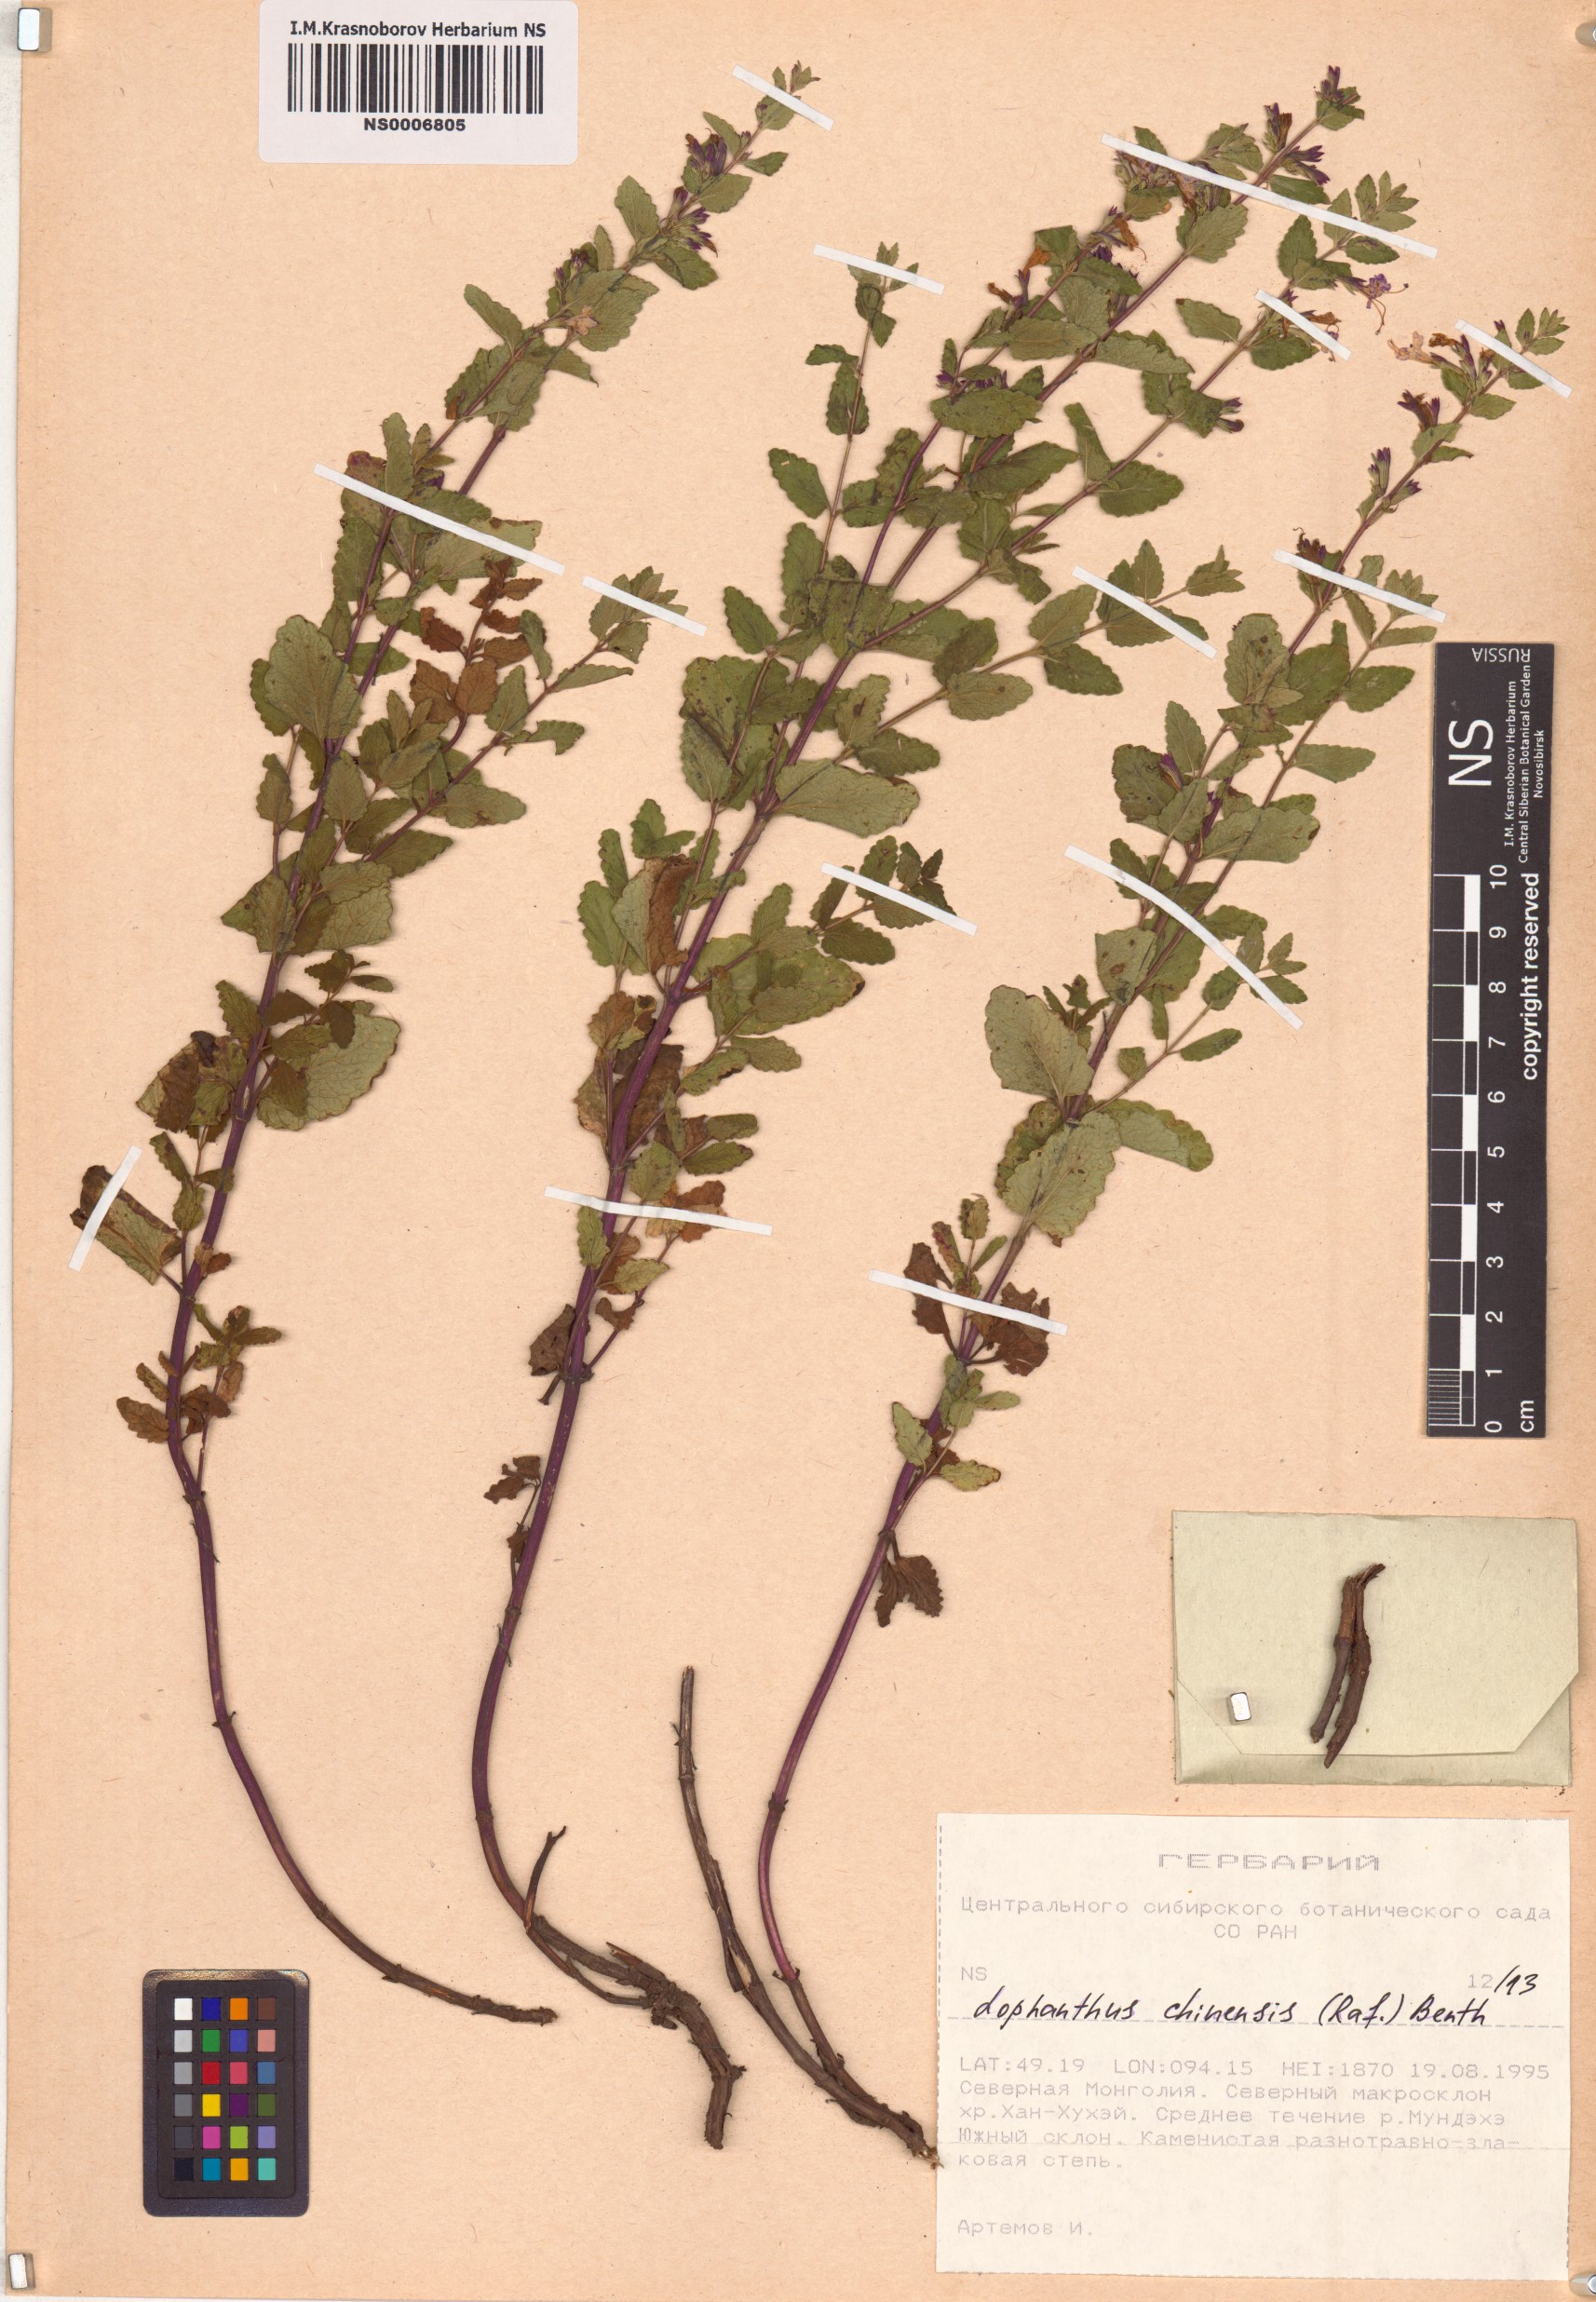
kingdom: Plantae
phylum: Tracheophyta
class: Magnoliopsida
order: Lamiales
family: Lamiaceae
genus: Nepeta
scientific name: Nepeta lophanthus
